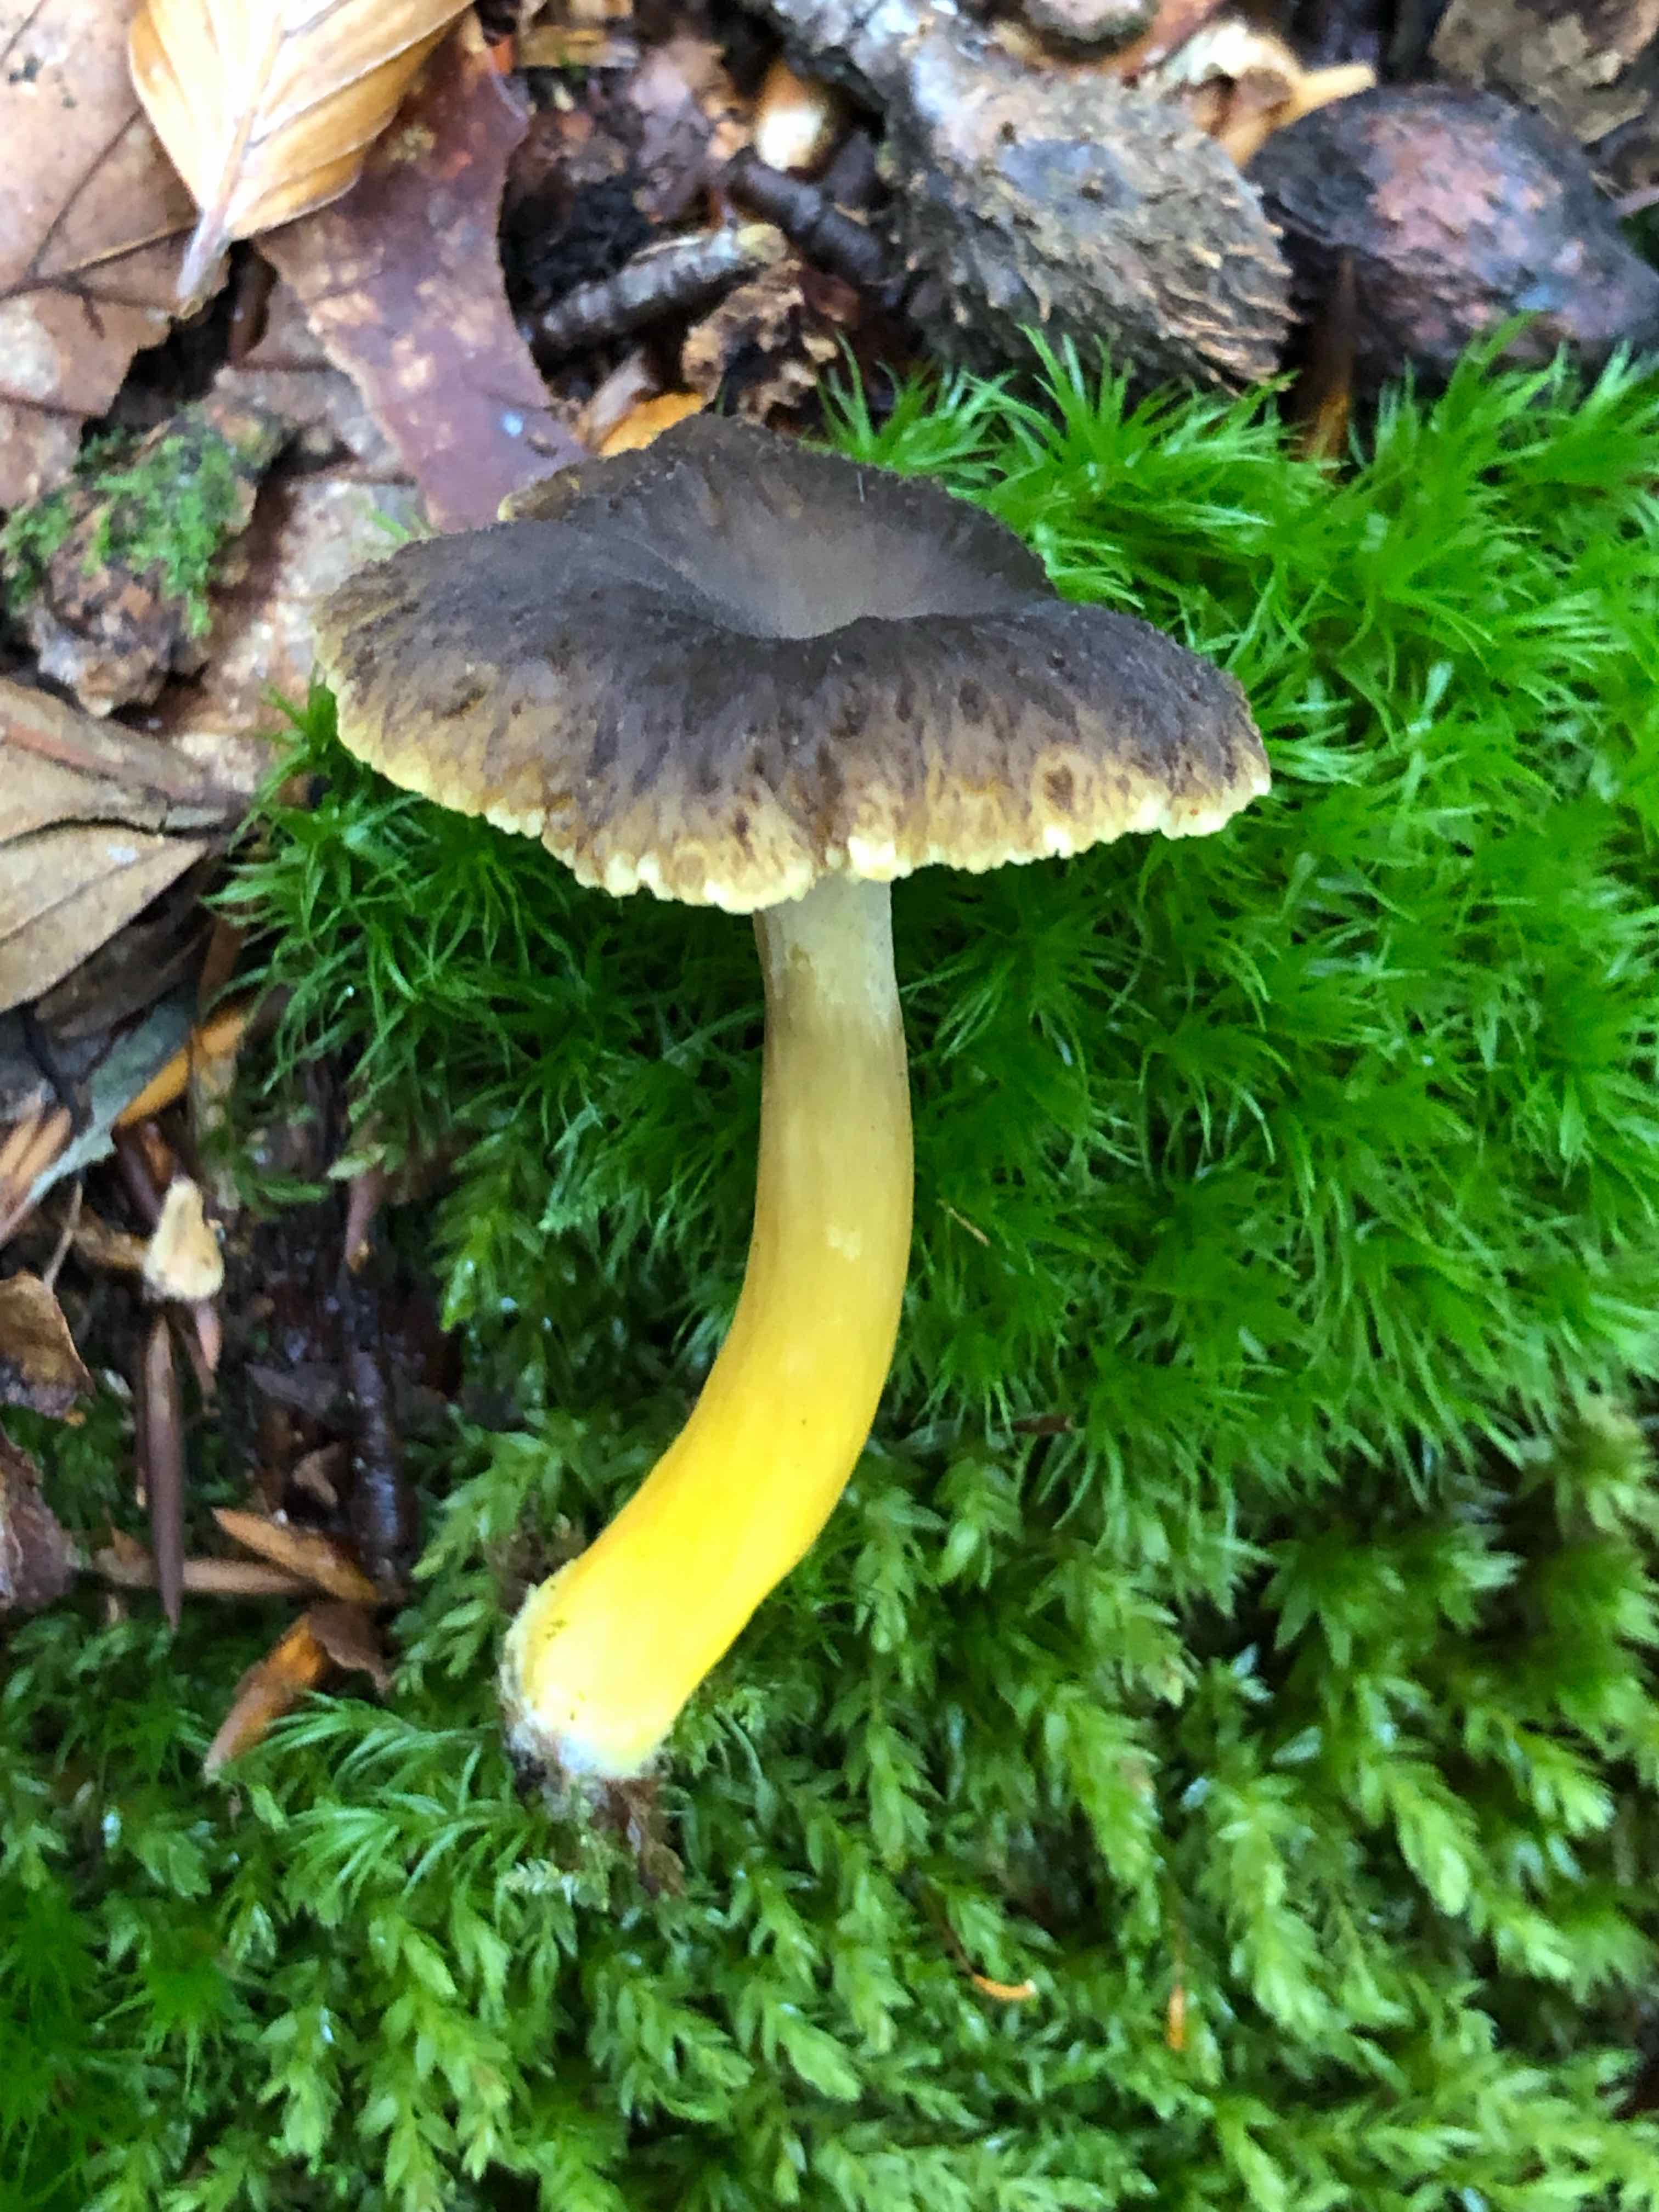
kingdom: Fungi
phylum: Basidiomycota
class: Agaricomycetes
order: Cantharellales
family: Hydnaceae
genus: Craterellus
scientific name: Craterellus tubaeformis
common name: tragt-kantarel
